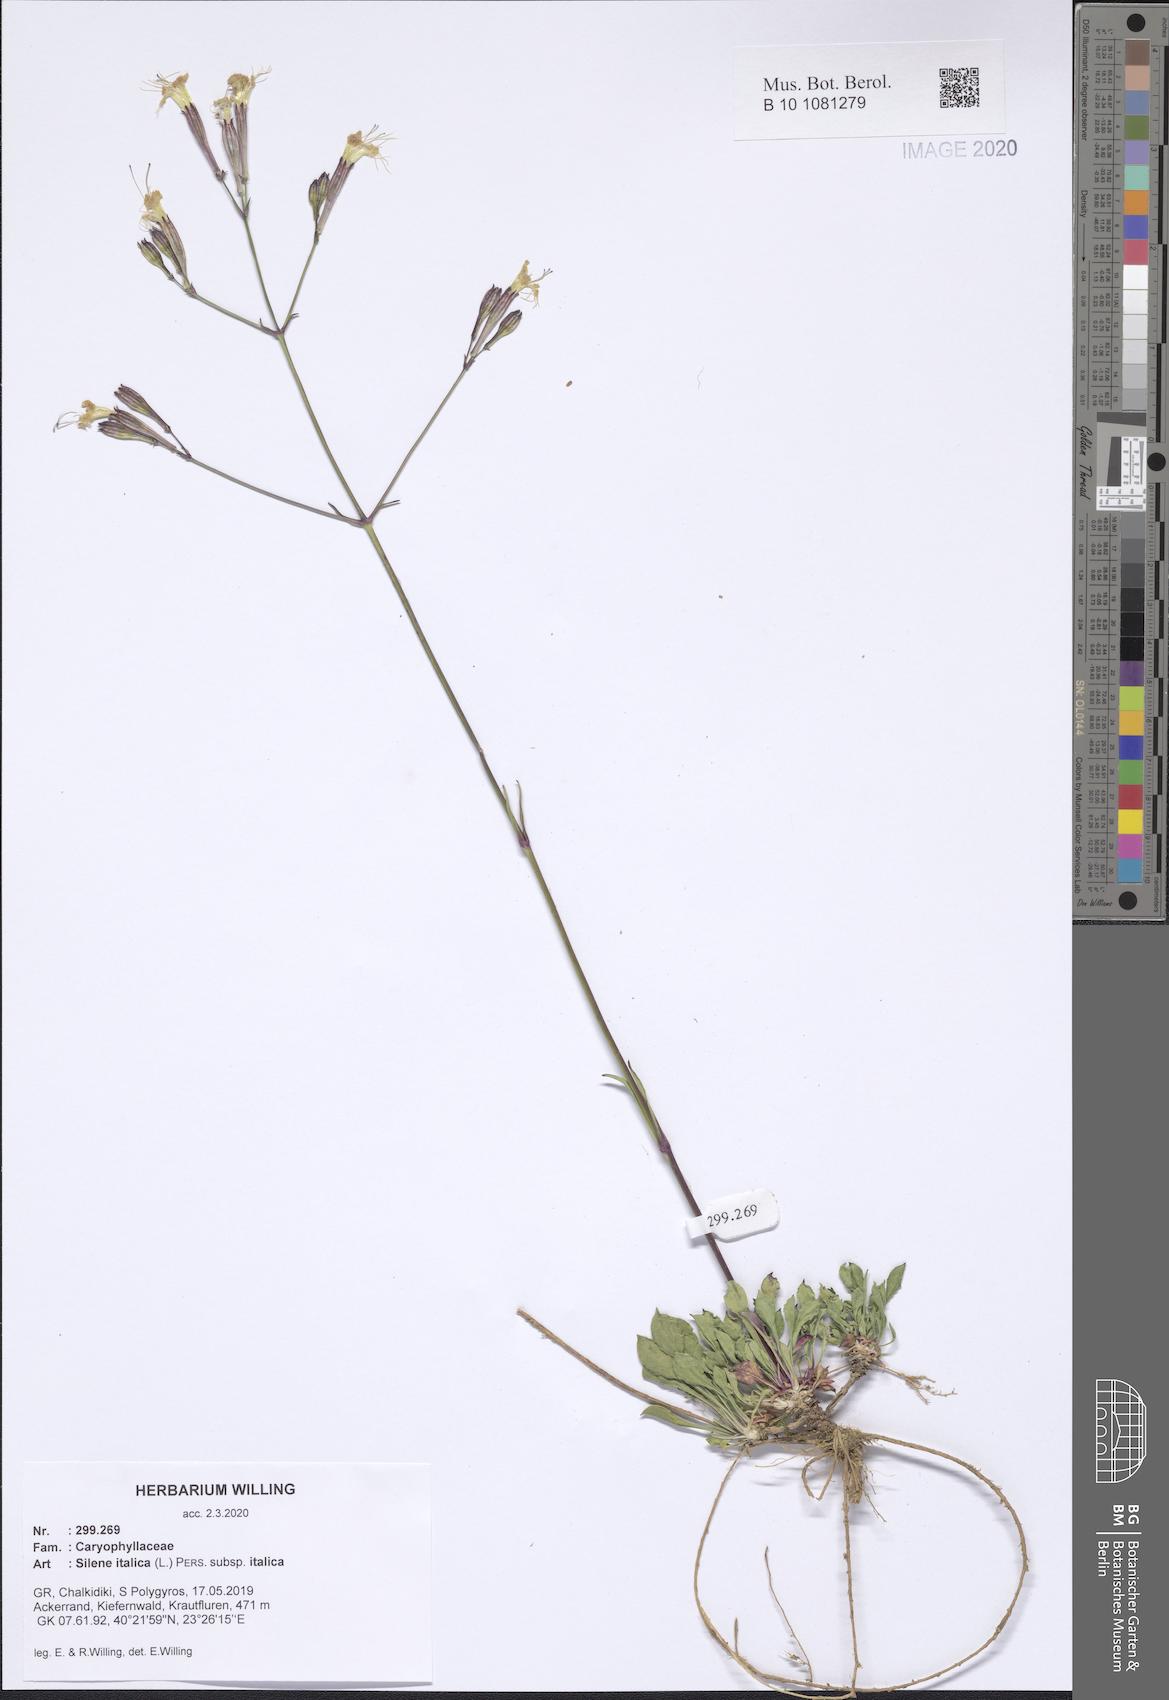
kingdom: Plantae
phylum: Tracheophyta
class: Magnoliopsida
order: Caryophyllales
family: Caryophyllaceae
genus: Silene
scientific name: Silene italica
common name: Italian catchfly
